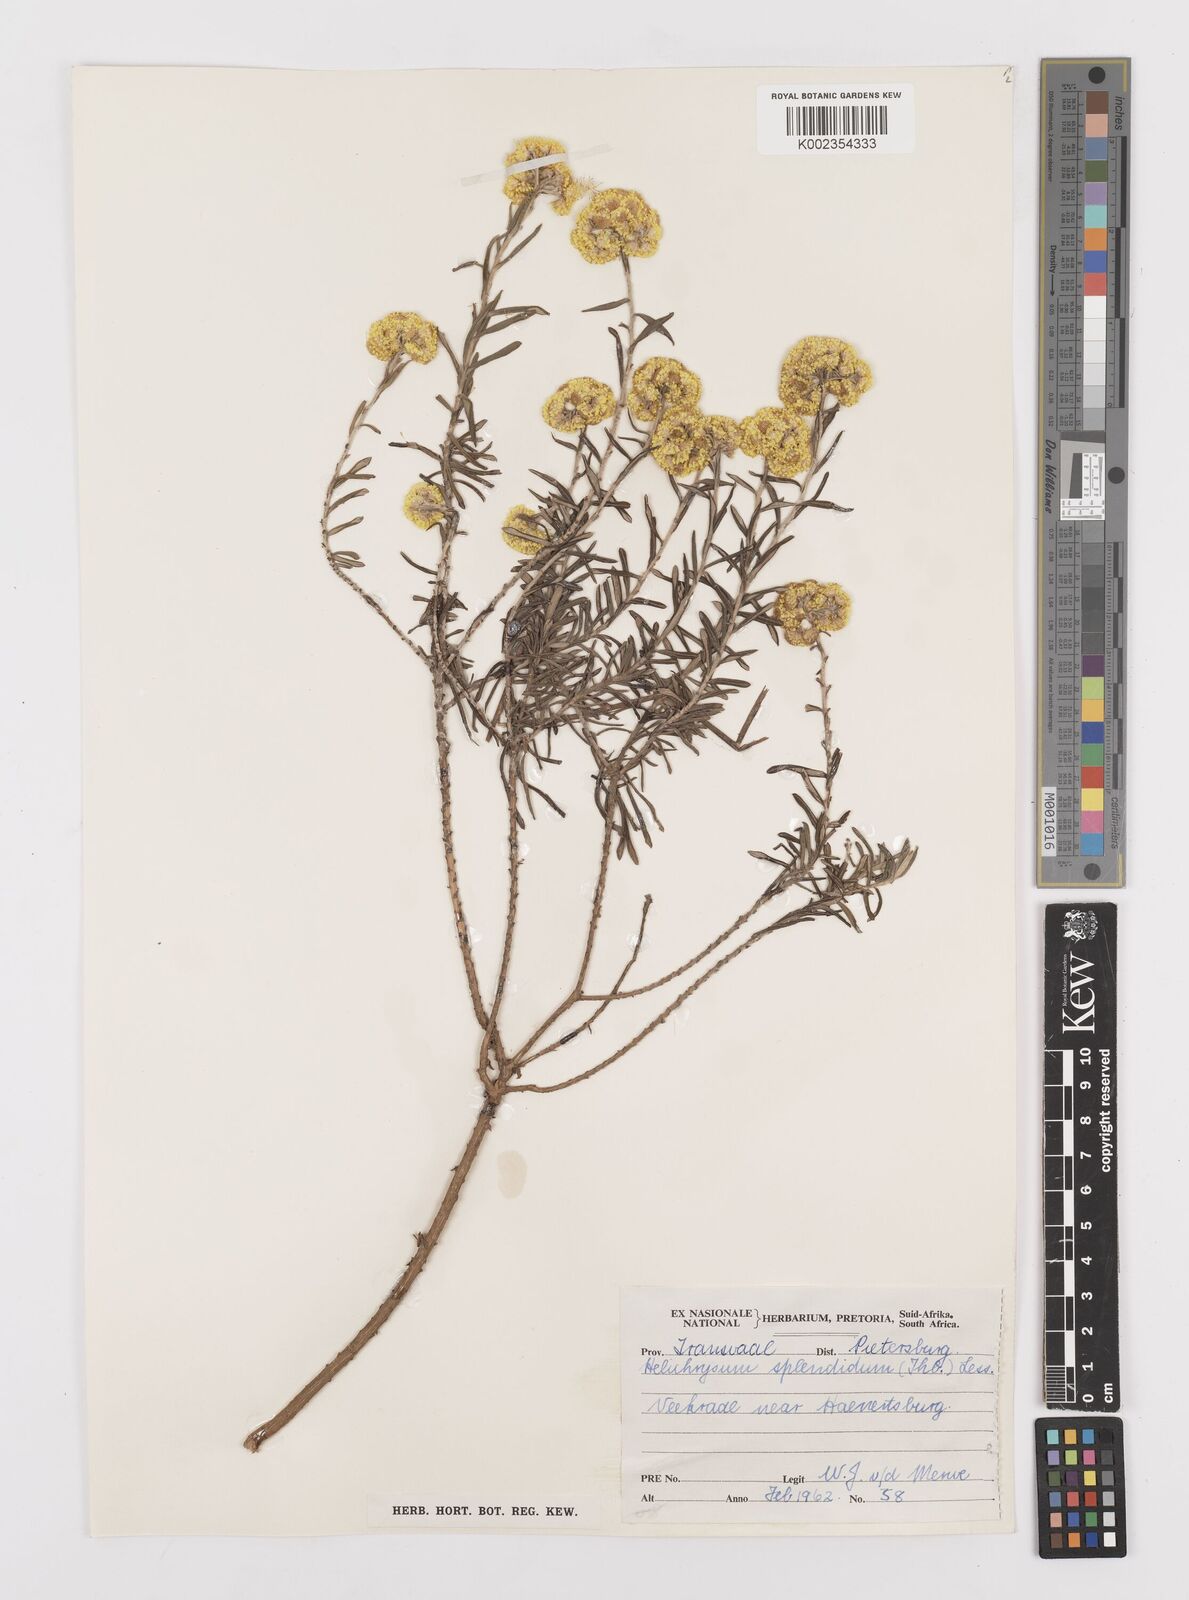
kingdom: Plantae
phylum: Tracheophyta
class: Magnoliopsida
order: Asterales
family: Asteraceae
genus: Helichrysum
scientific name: Helichrysum splendidum
